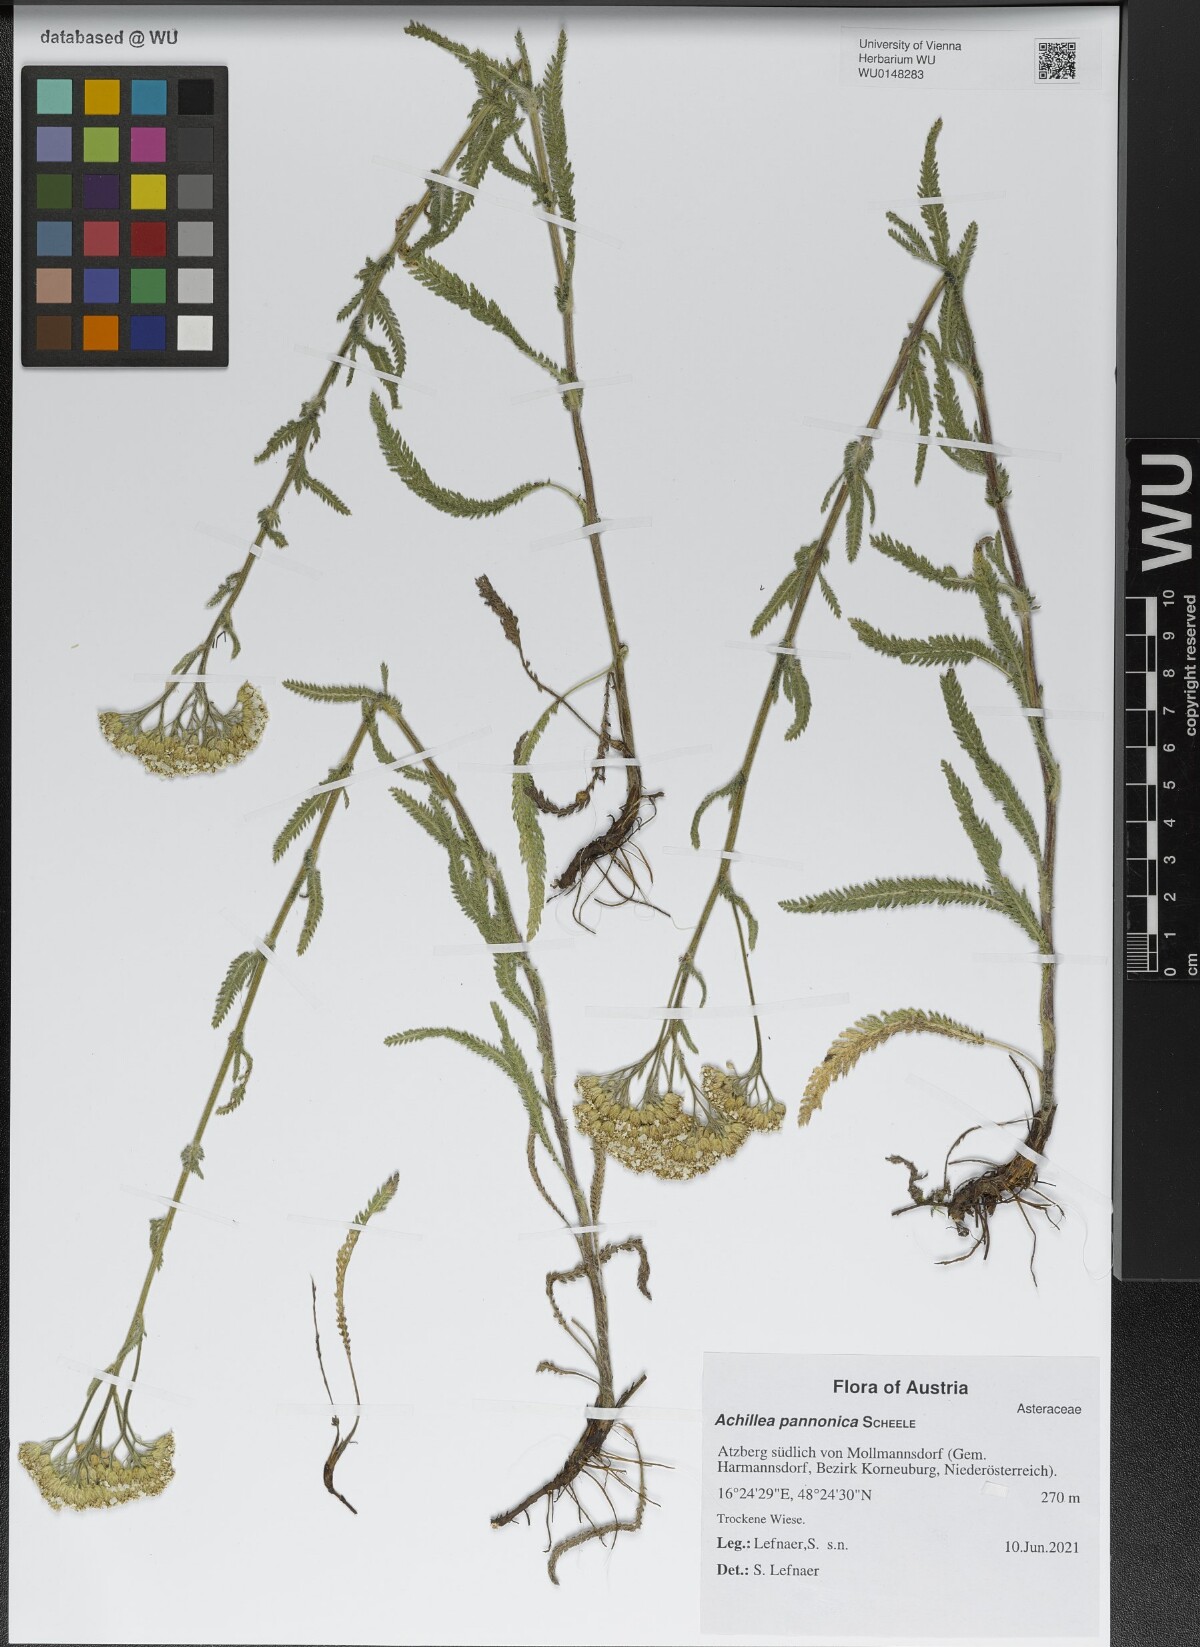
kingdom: Plantae
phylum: Tracheophyta
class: Magnoliopsida
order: Asterales
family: Asteraceae
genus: Achillea
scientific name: Achillea pannonica
